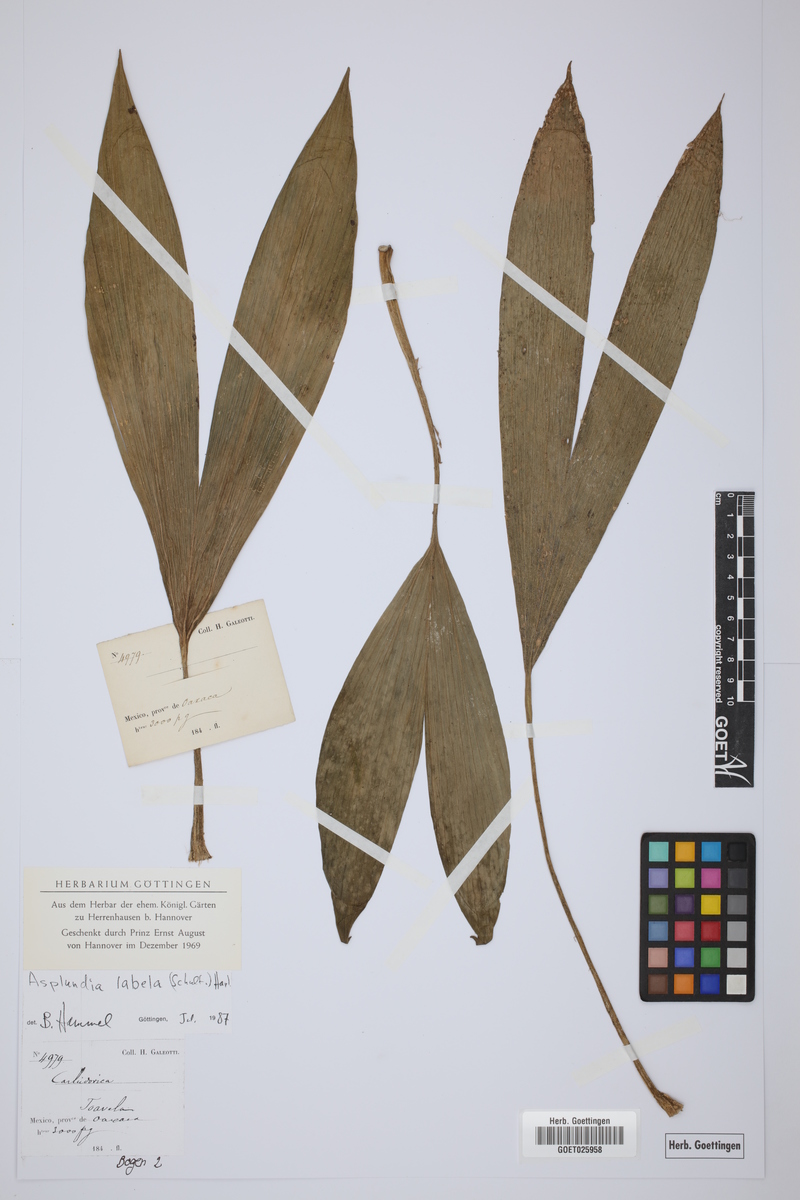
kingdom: Plantae
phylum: Tracheophyta
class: Liliopsida
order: Pandanales
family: Cyclanthaceae
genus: Asplundia
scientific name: Asplundia labela
